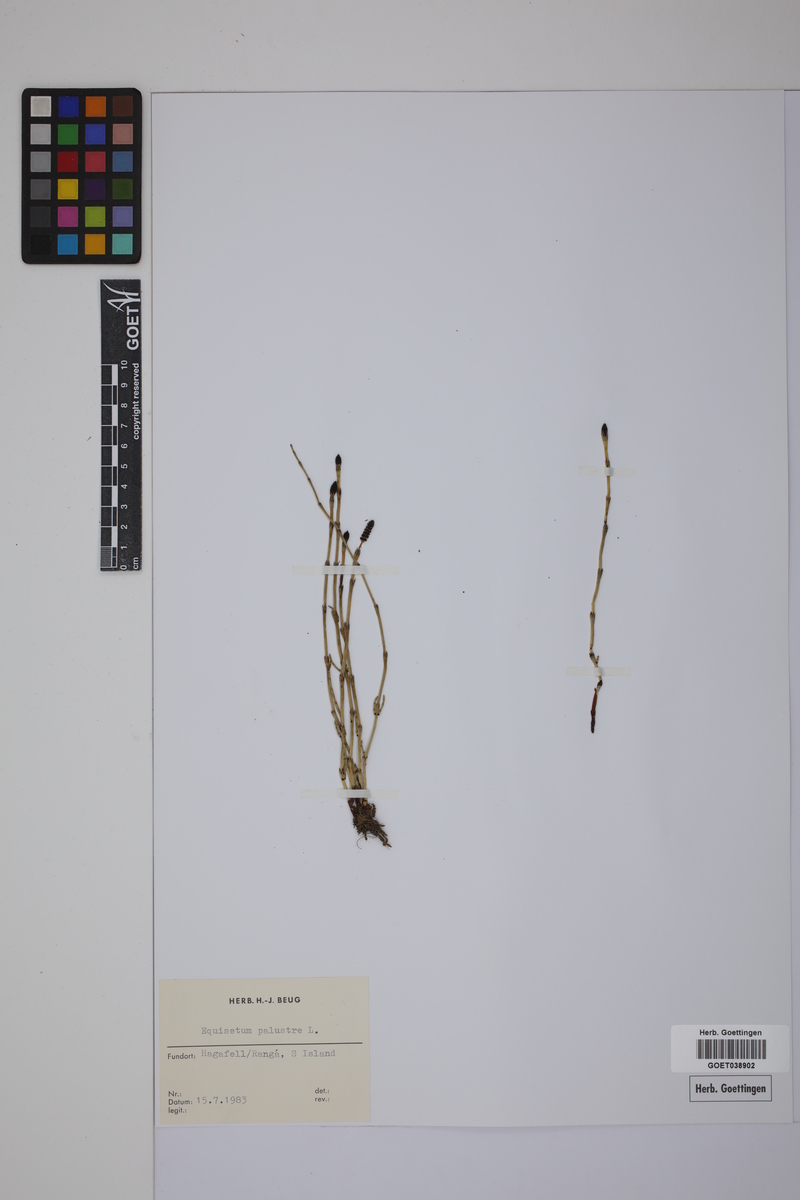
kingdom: Plantae
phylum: Tracheophyta
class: Polypodiopsida
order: Equisetales
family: Equisetaceae
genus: Equisetum
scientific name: Equisetum palustre
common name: Marsh horsetail
